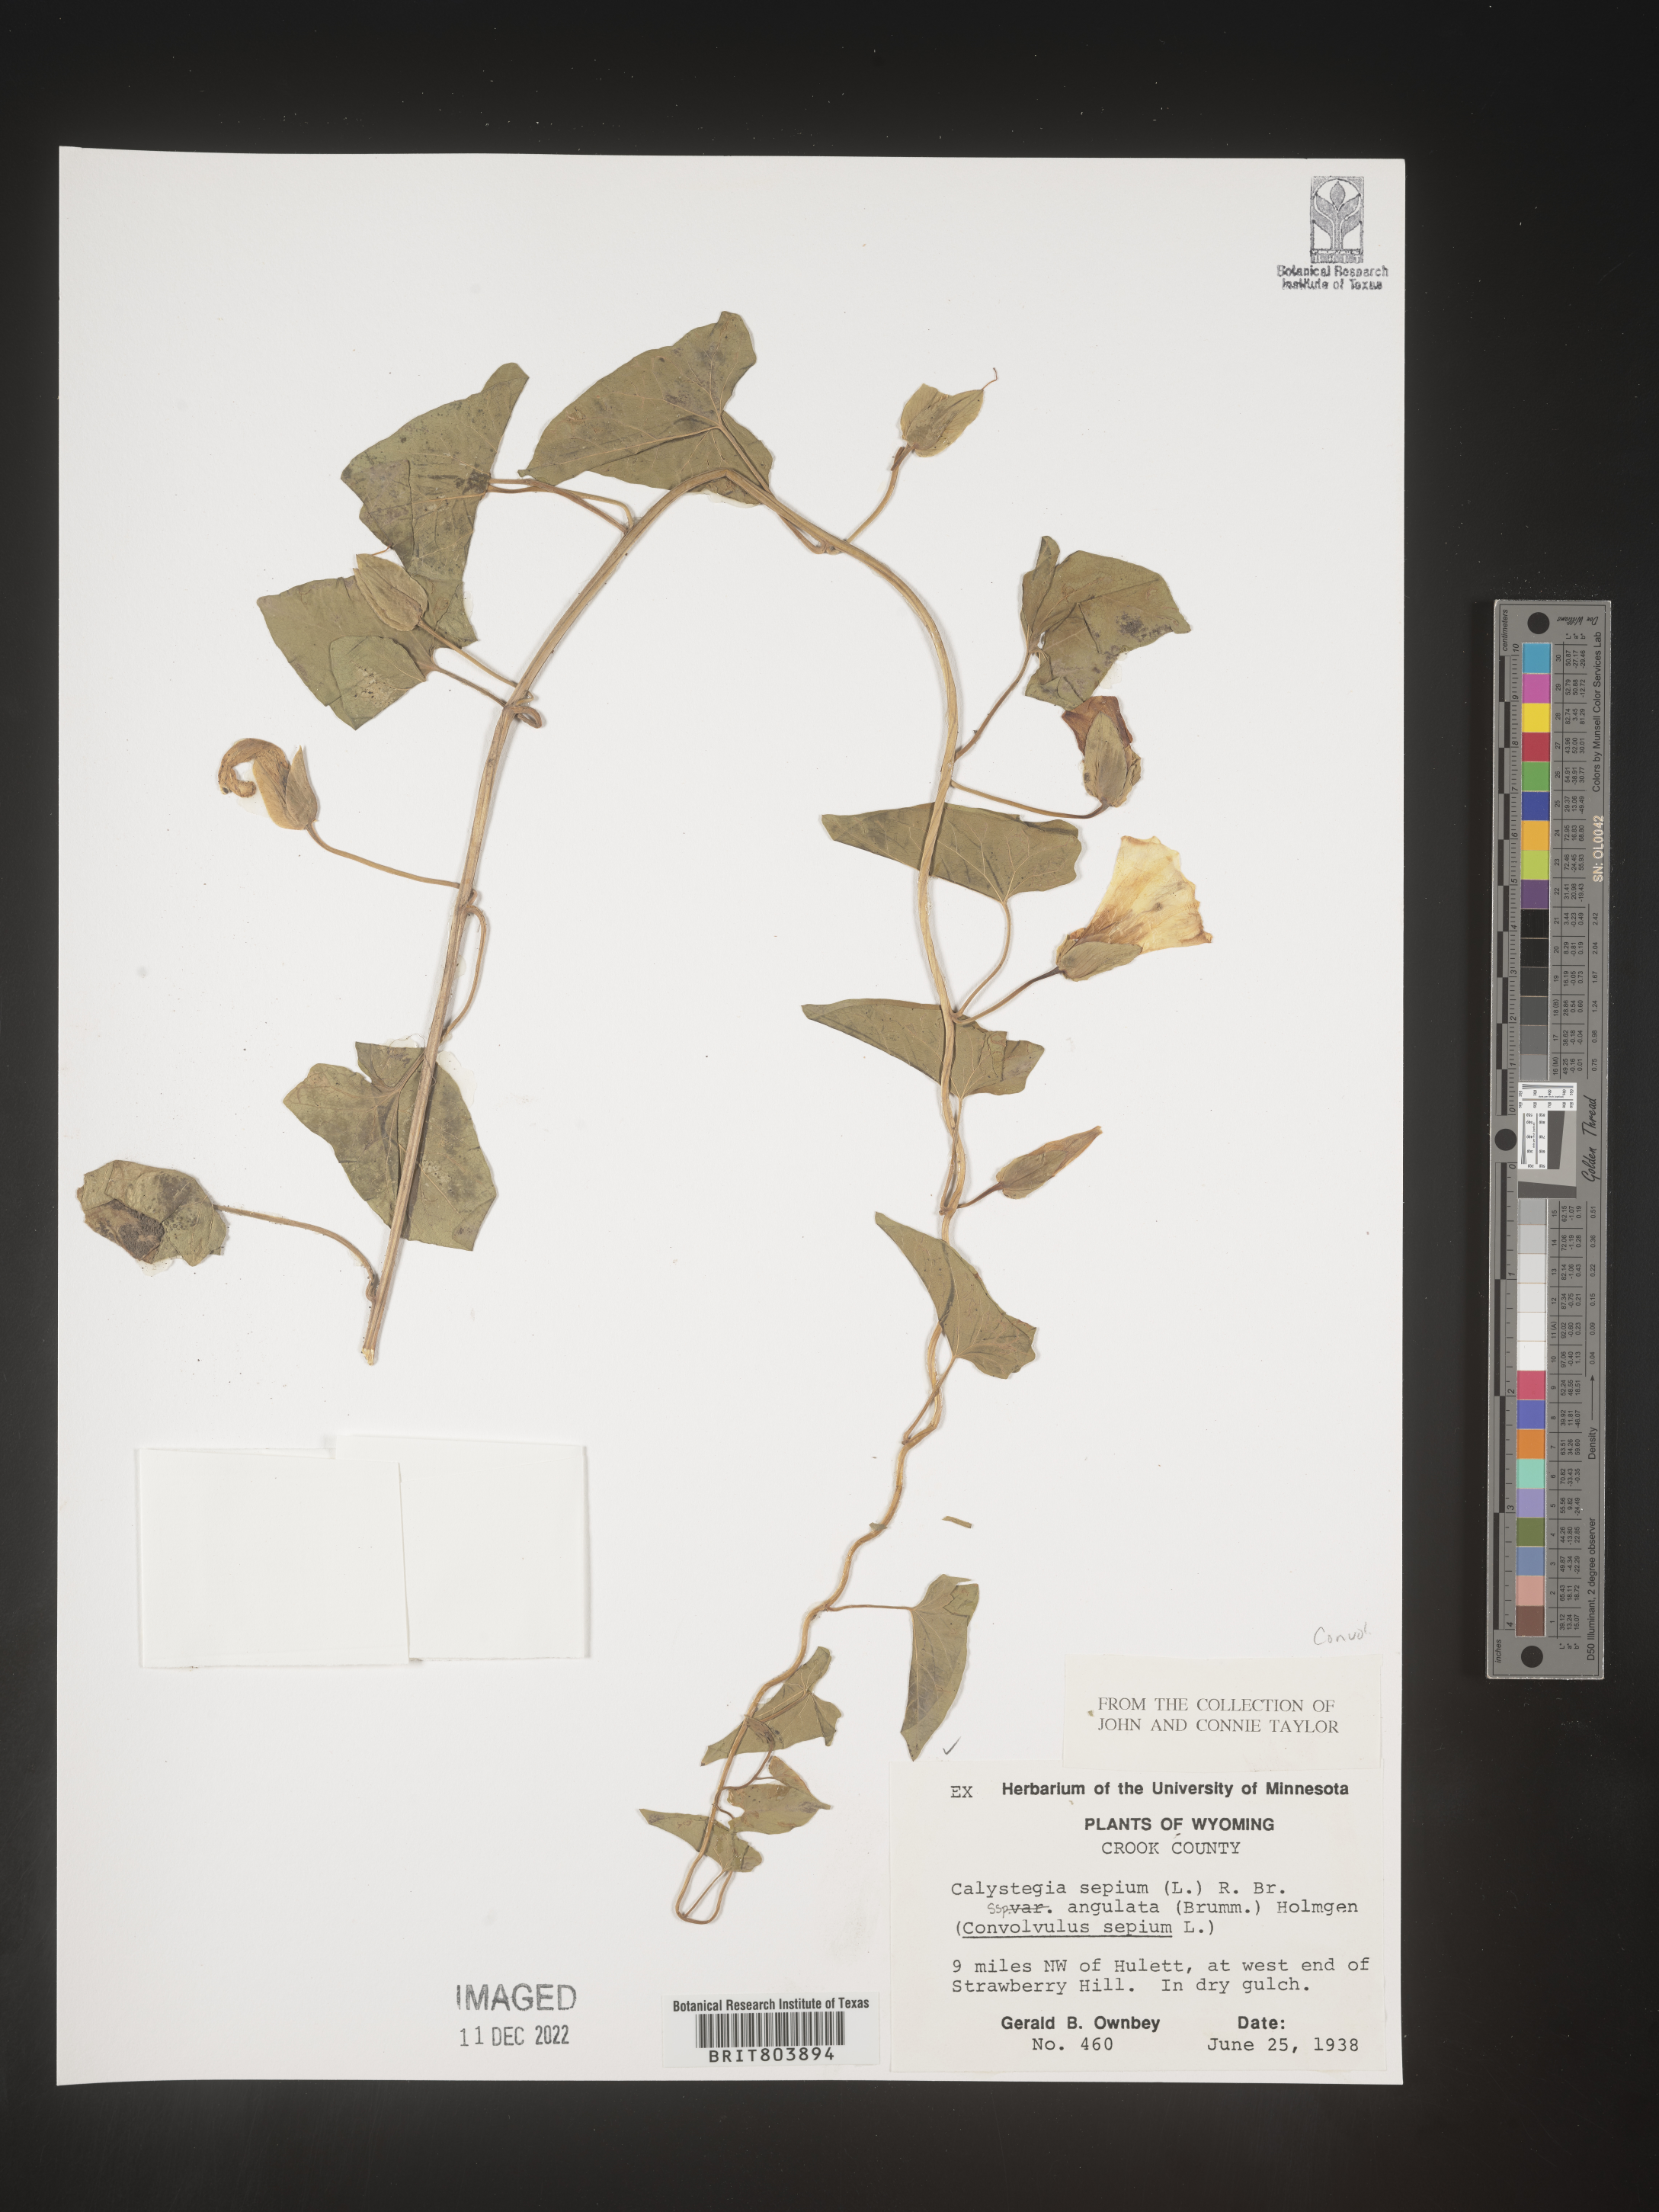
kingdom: Plantae
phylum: Tracheophyta
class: Magnoliopsida
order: Solanales
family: Convolvulaceae
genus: Calystegia
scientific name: Calystegia sepium
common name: Hedge bindweed
